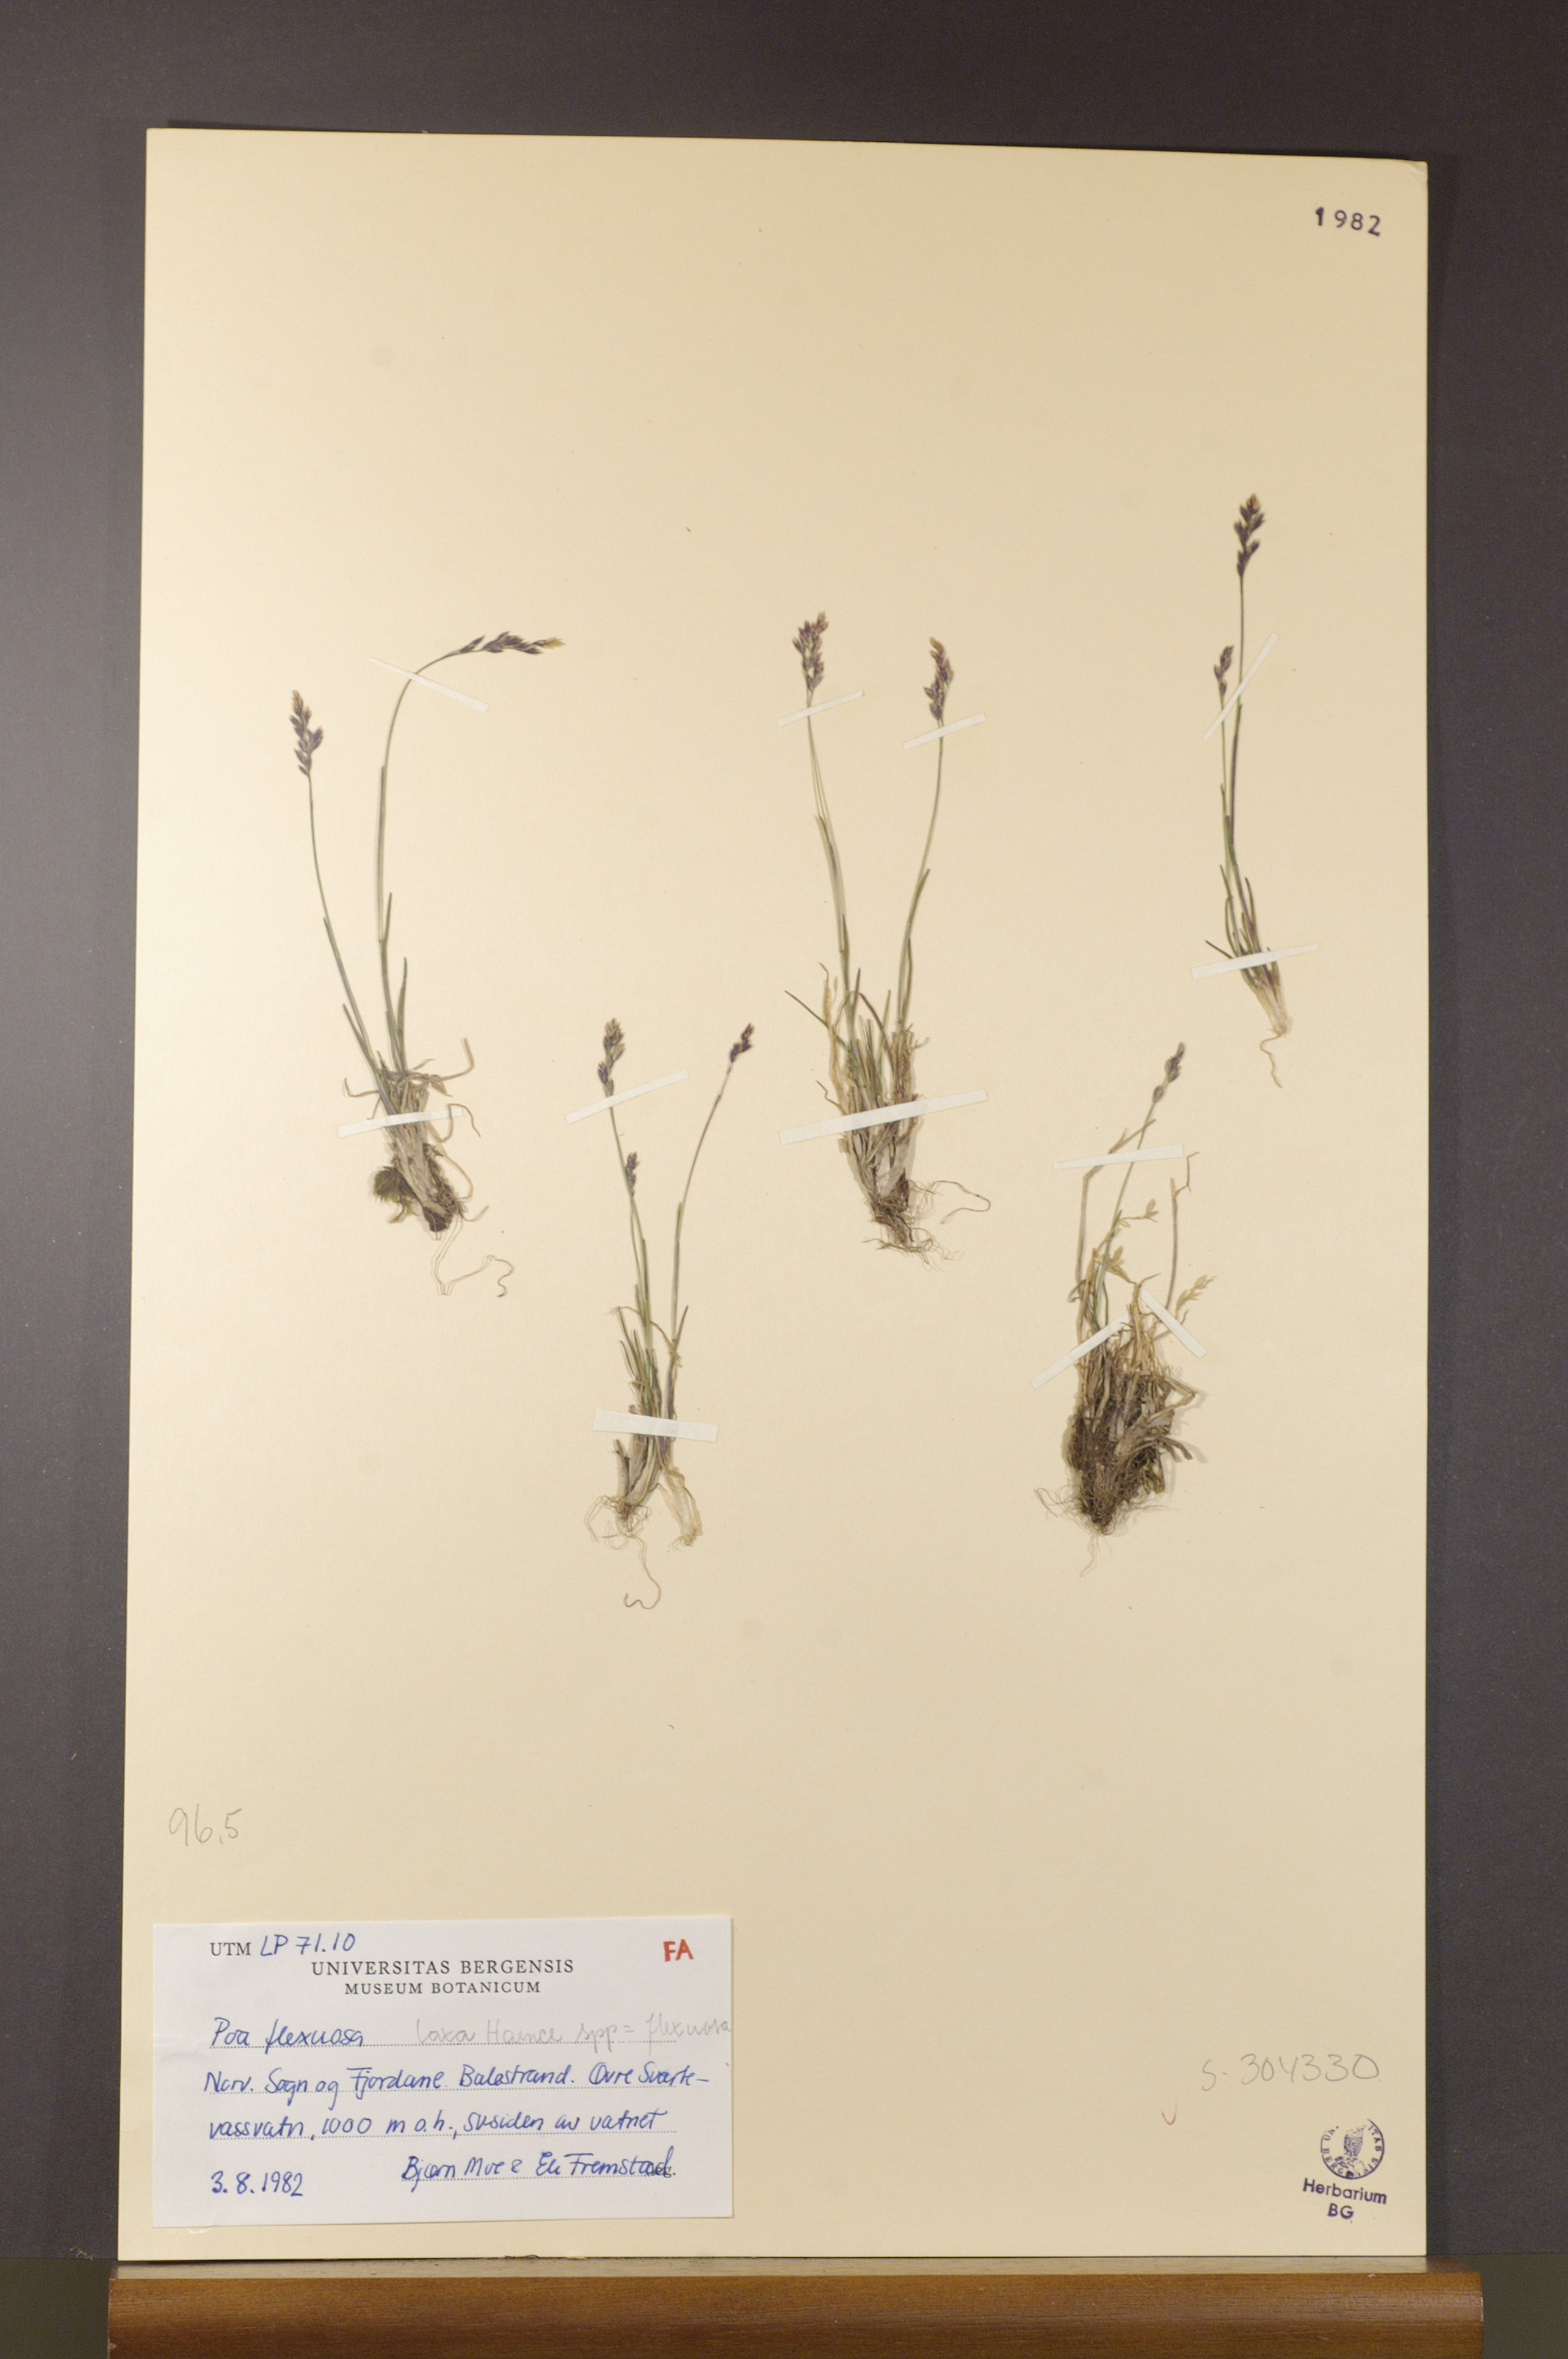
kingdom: Plantae
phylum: Tracheophyta
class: Liliopsida
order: Poales
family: Poaceae
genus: Poa
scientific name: Poa flexuosa
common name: Wavy meadow-grass
